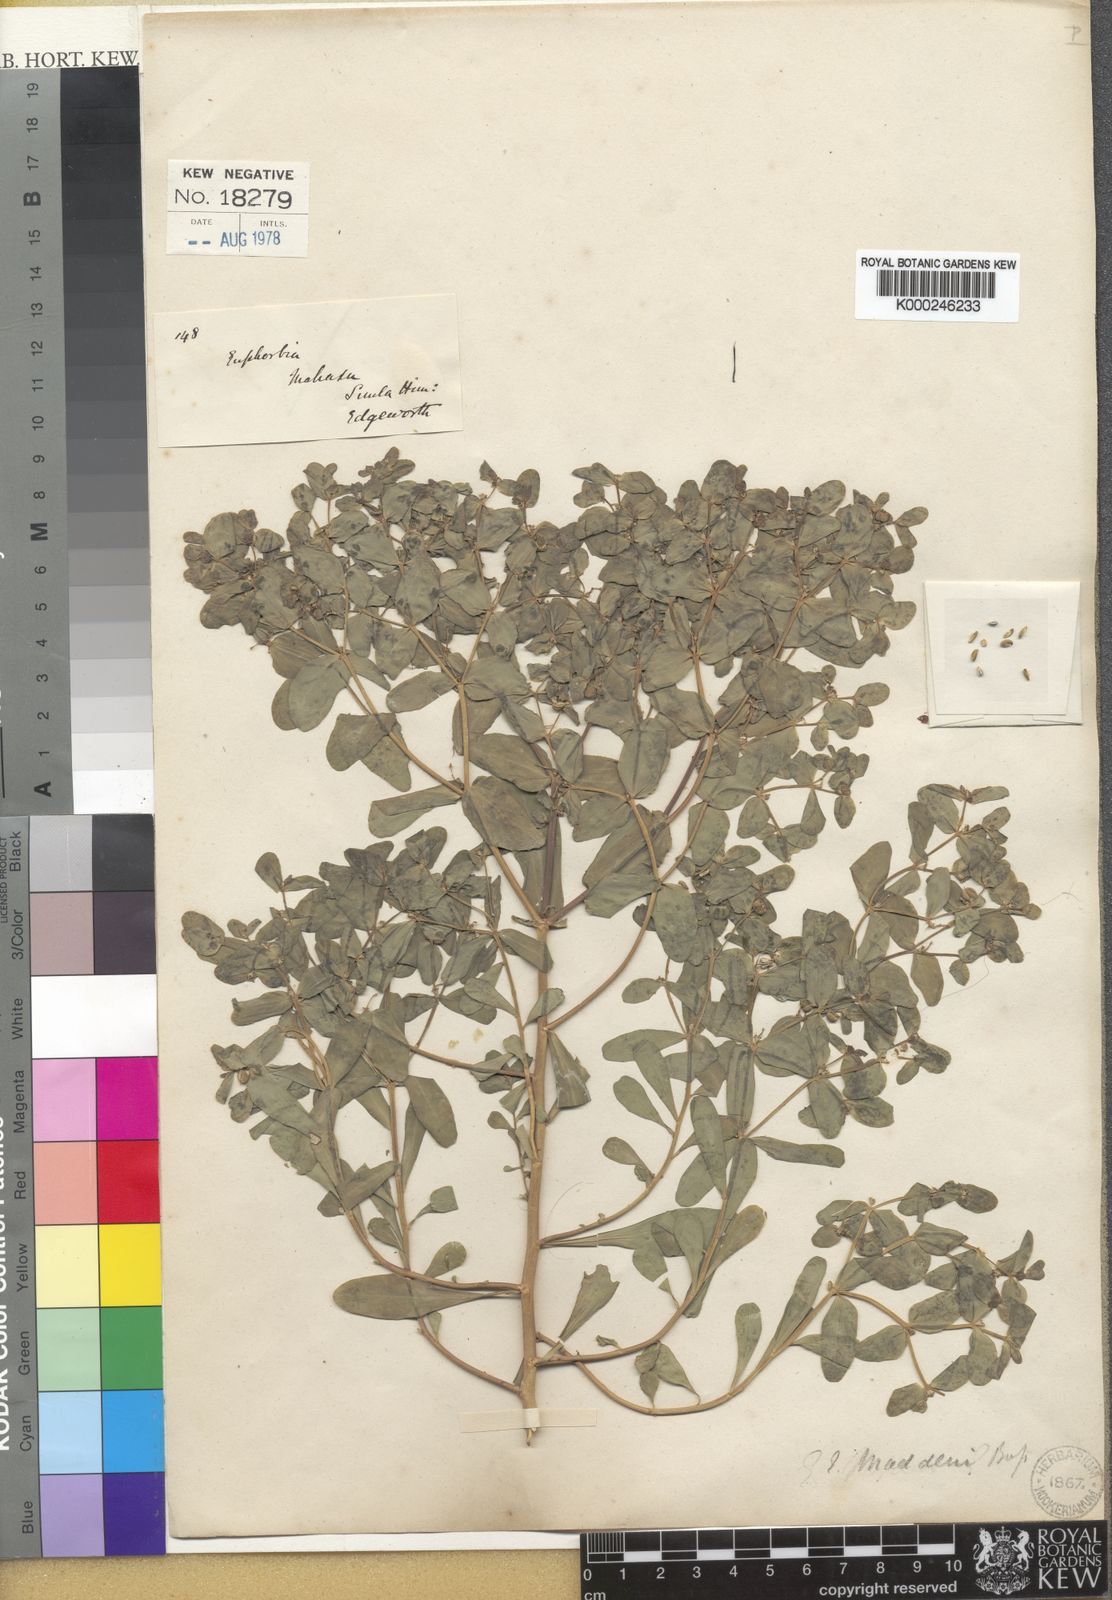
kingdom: Plantae
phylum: Tracheophyta
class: Magnoliopsida
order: Malpighiales
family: Euphorbiaceae
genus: Euphorbia
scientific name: Euphorbia maddenii
